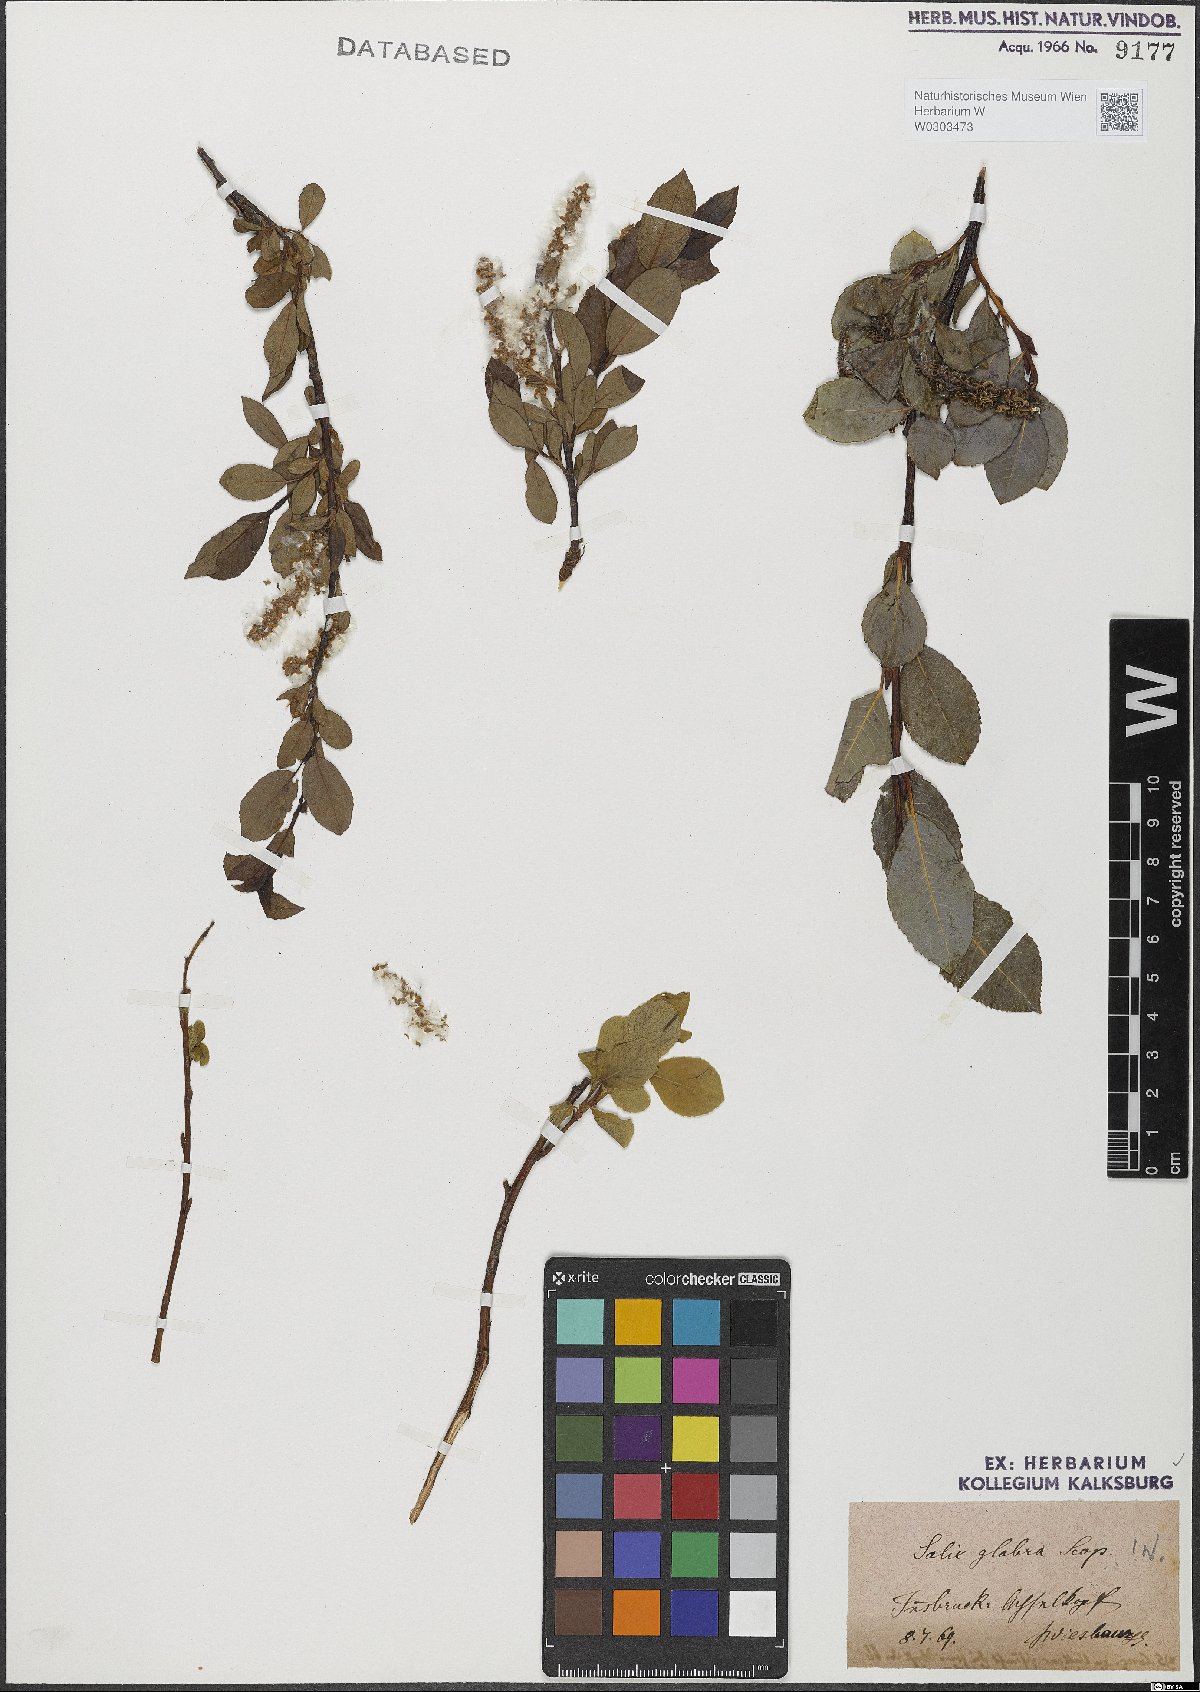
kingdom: Plantae
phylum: Tracheophyta
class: Magnoliopsida
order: Malpighiales
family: Salicaceae
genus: Salix
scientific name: Salix glabra
